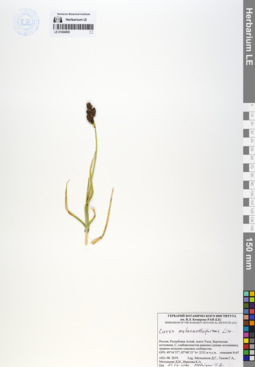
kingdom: Plantae
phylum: Tracheophyta
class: Liliopsida
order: Poales
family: Cyperaceae
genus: Carex
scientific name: Carex melananthiformis
